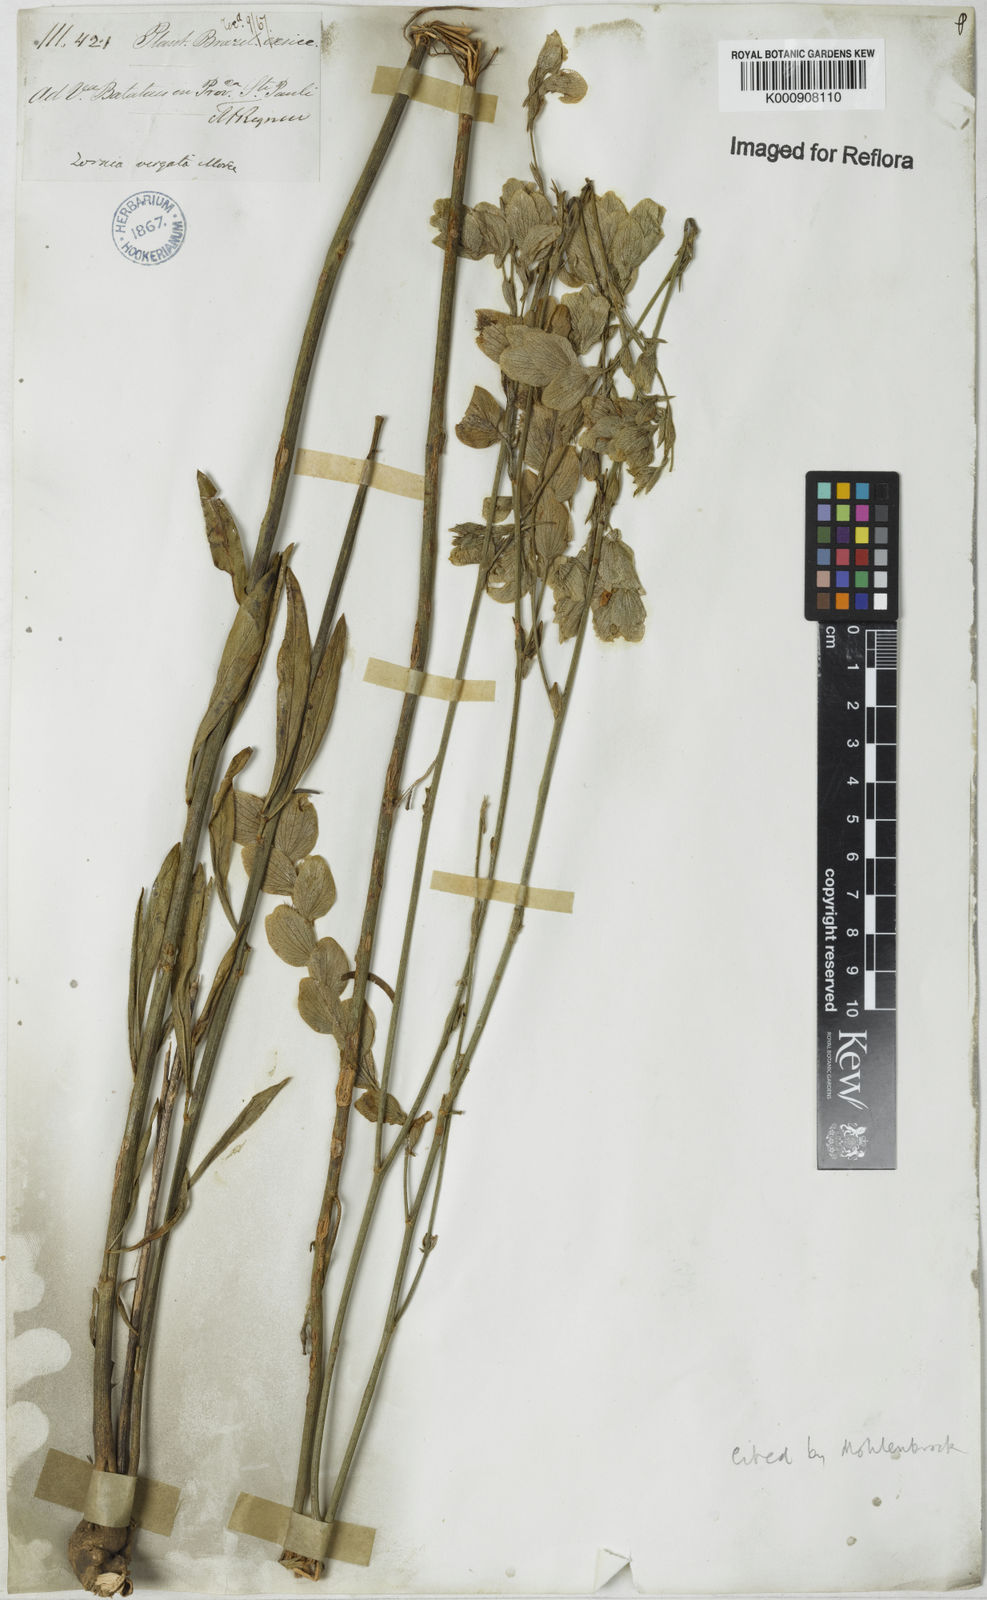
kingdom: Plantae
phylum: Tracheophyta
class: Magnoliopsida
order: Fabales
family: Fabaceae
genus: Zornia
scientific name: Zornia virgata
